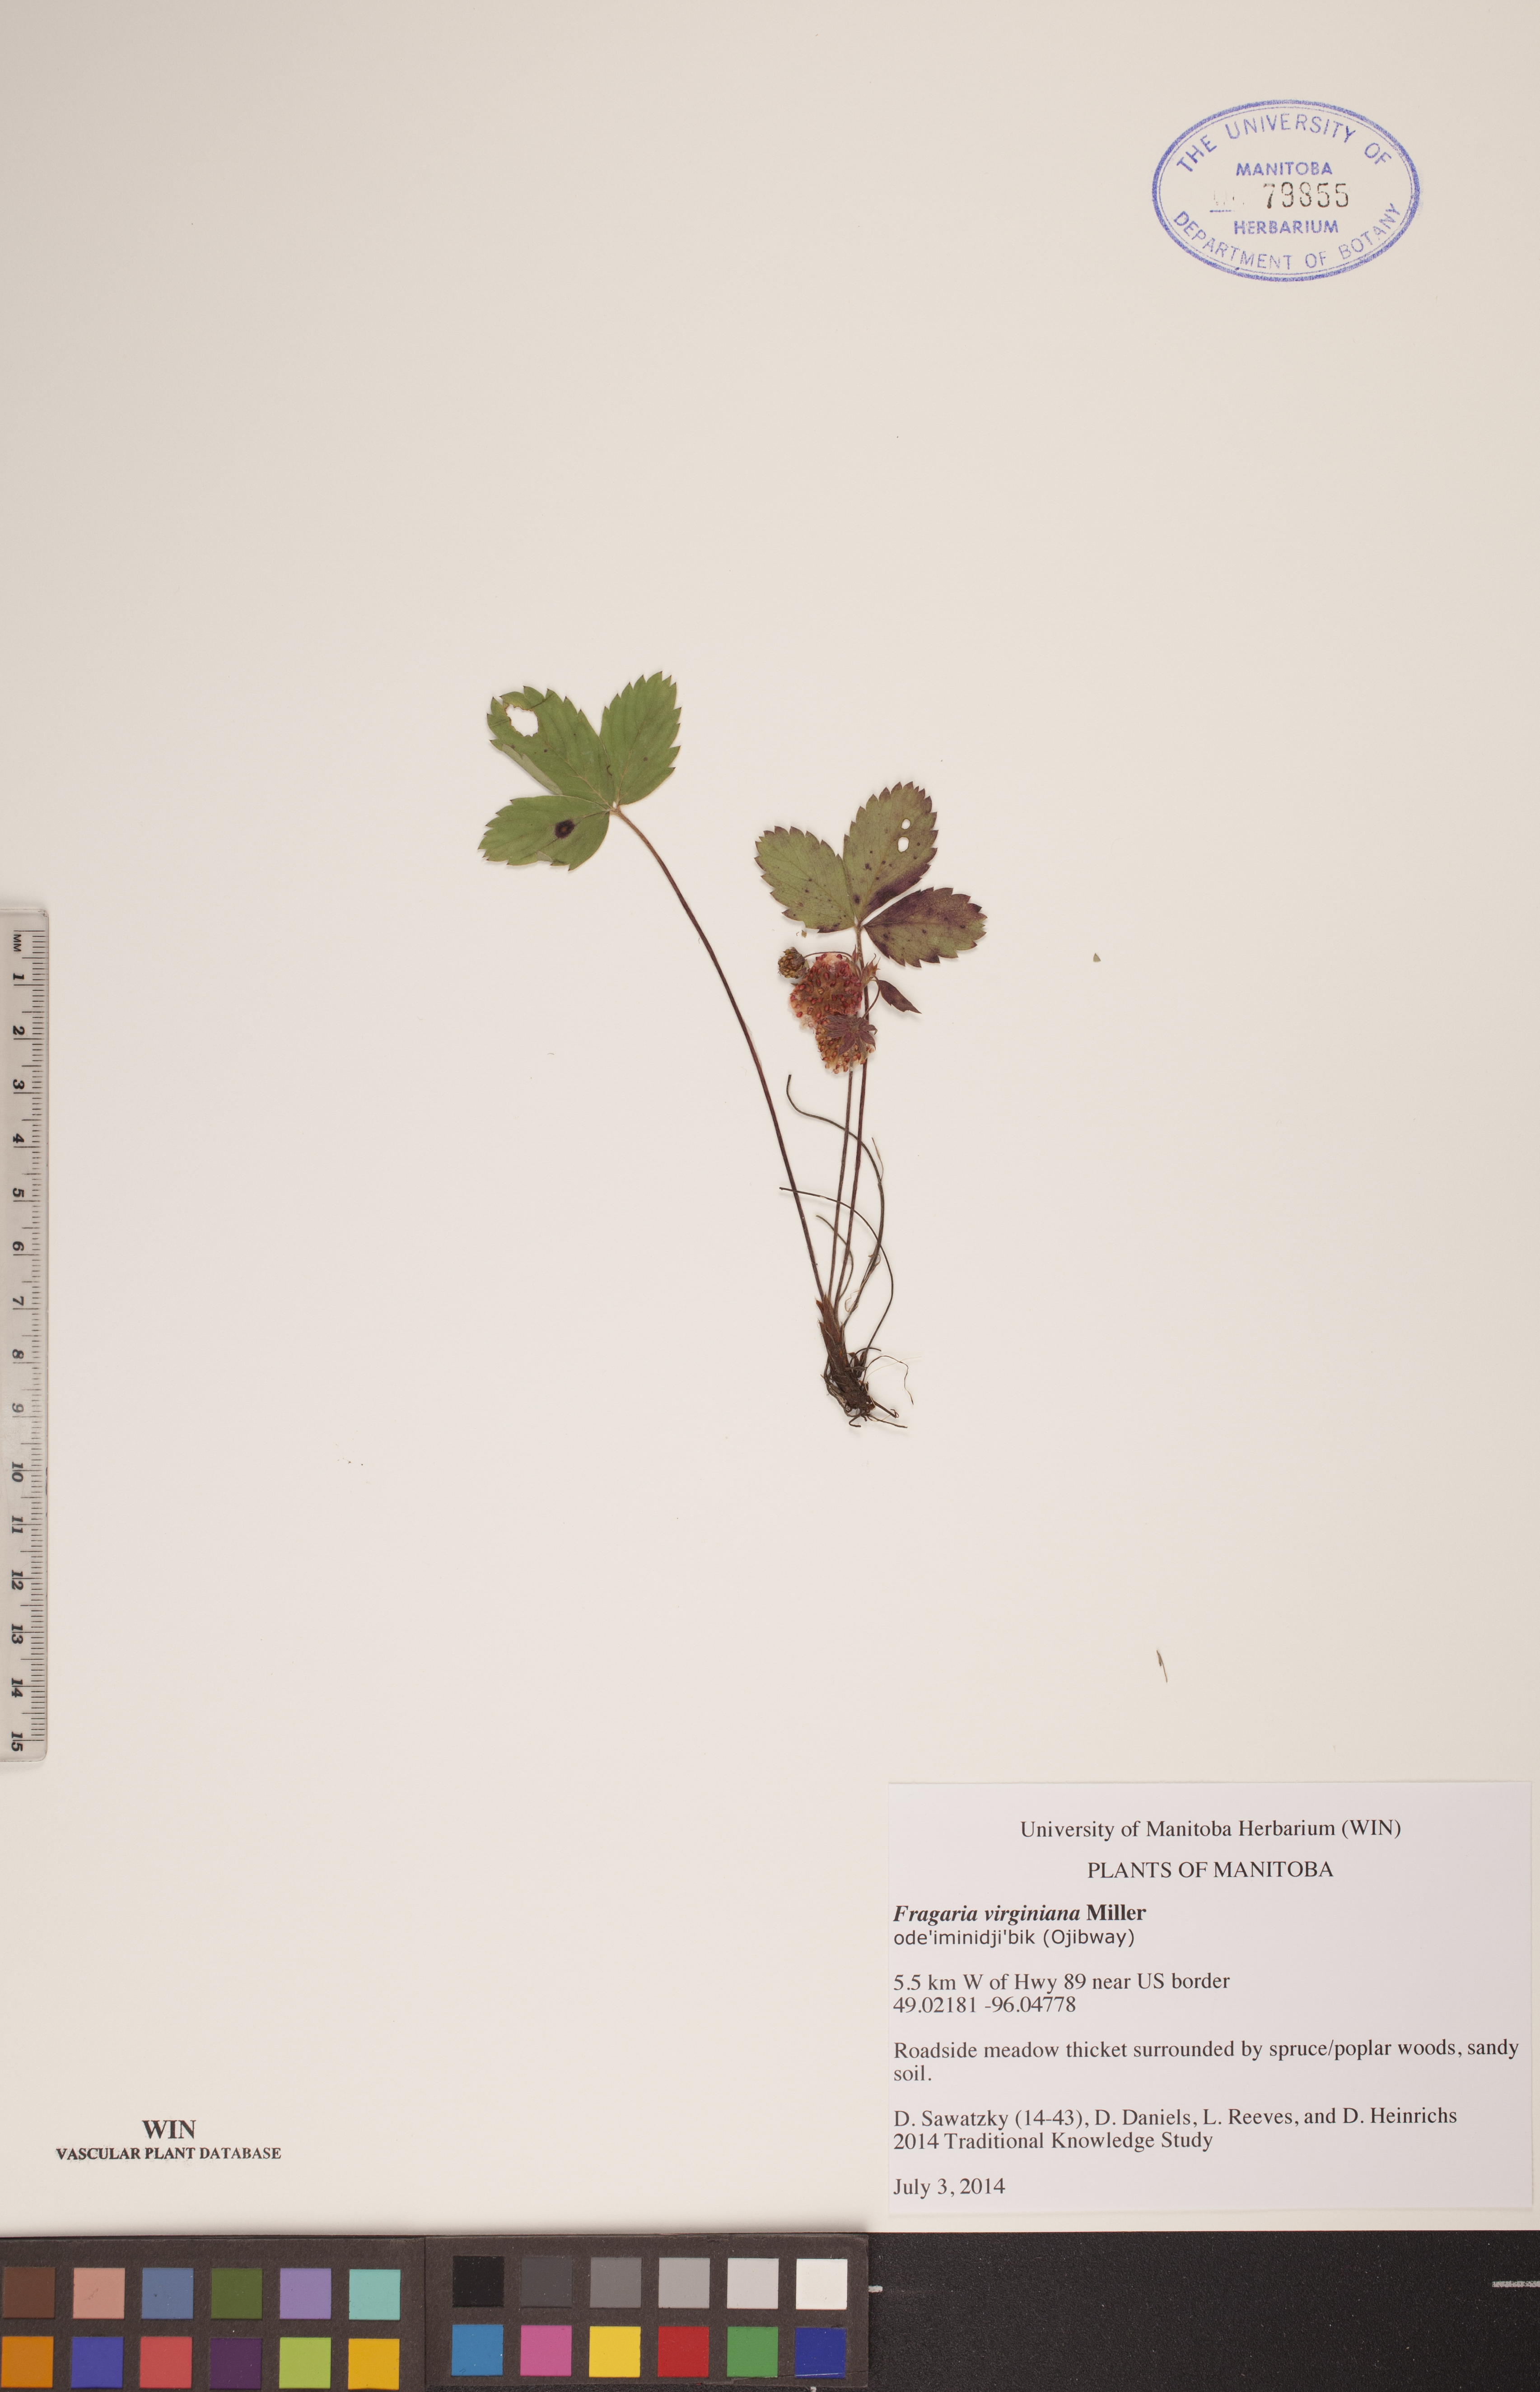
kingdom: Plantae
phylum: Tracheophyta
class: Magnoliopsida
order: Rosales
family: Rosaceae
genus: Fragaria
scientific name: Fragaria virginiana
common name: Thickleaved wild strawberry
